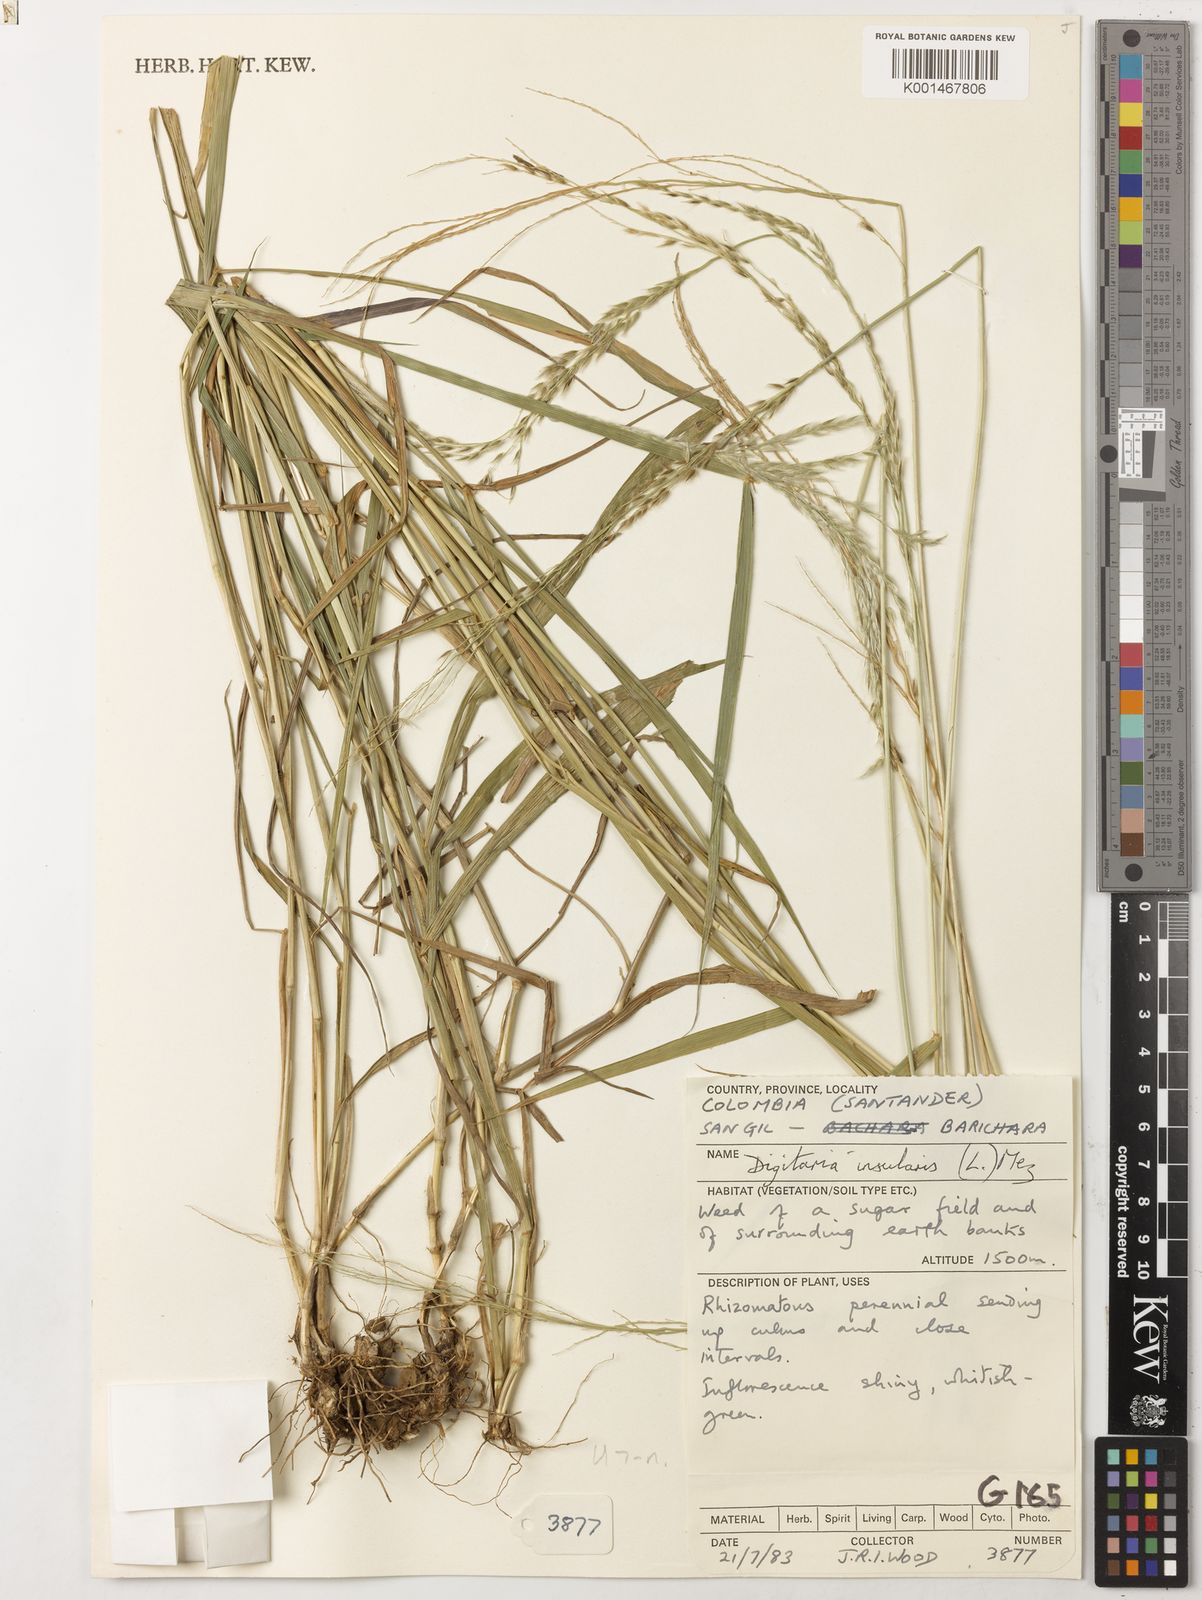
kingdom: Plantae
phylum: Tracheophyta
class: Liliopsida
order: Poales
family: Poaceae
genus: Digitaria
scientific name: Digitaria sellowii
